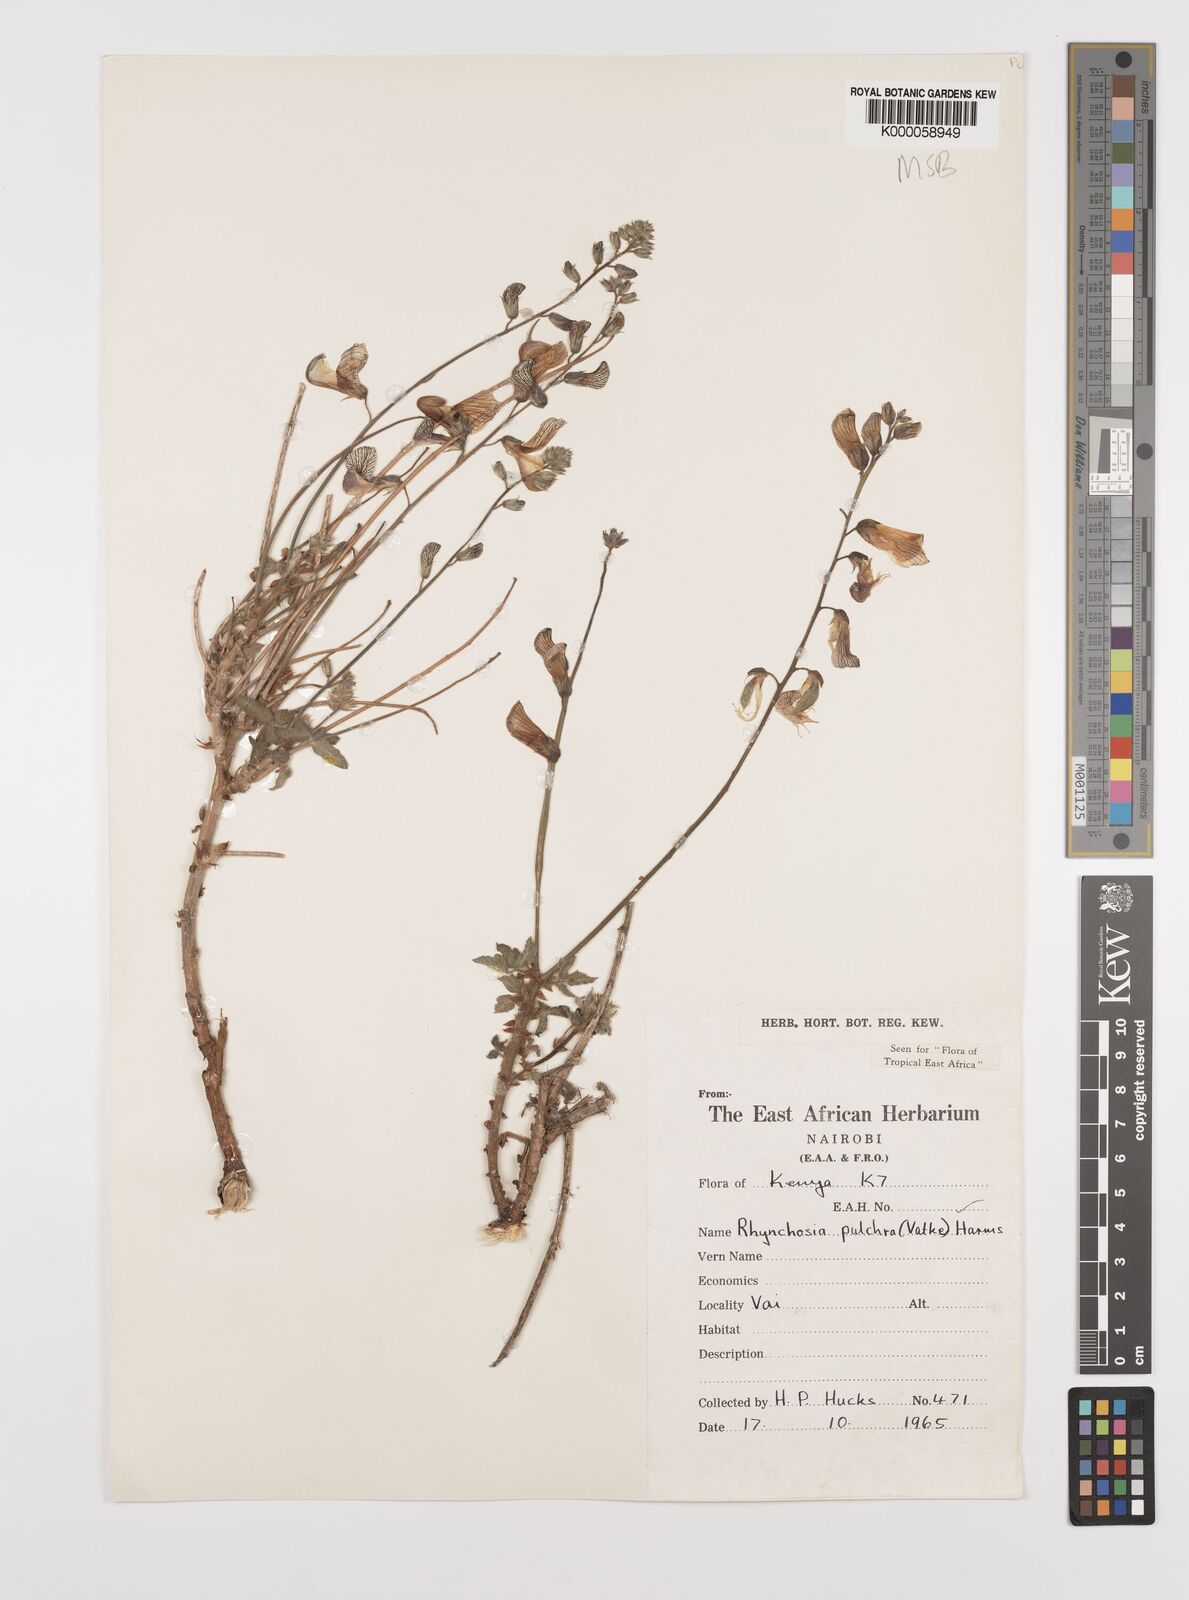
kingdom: Plantae
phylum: Tracheophyta
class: Magnoliopsida
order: Fabales
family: Fabaceae
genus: Rhynchosia
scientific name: Rhynchosia pulchra
